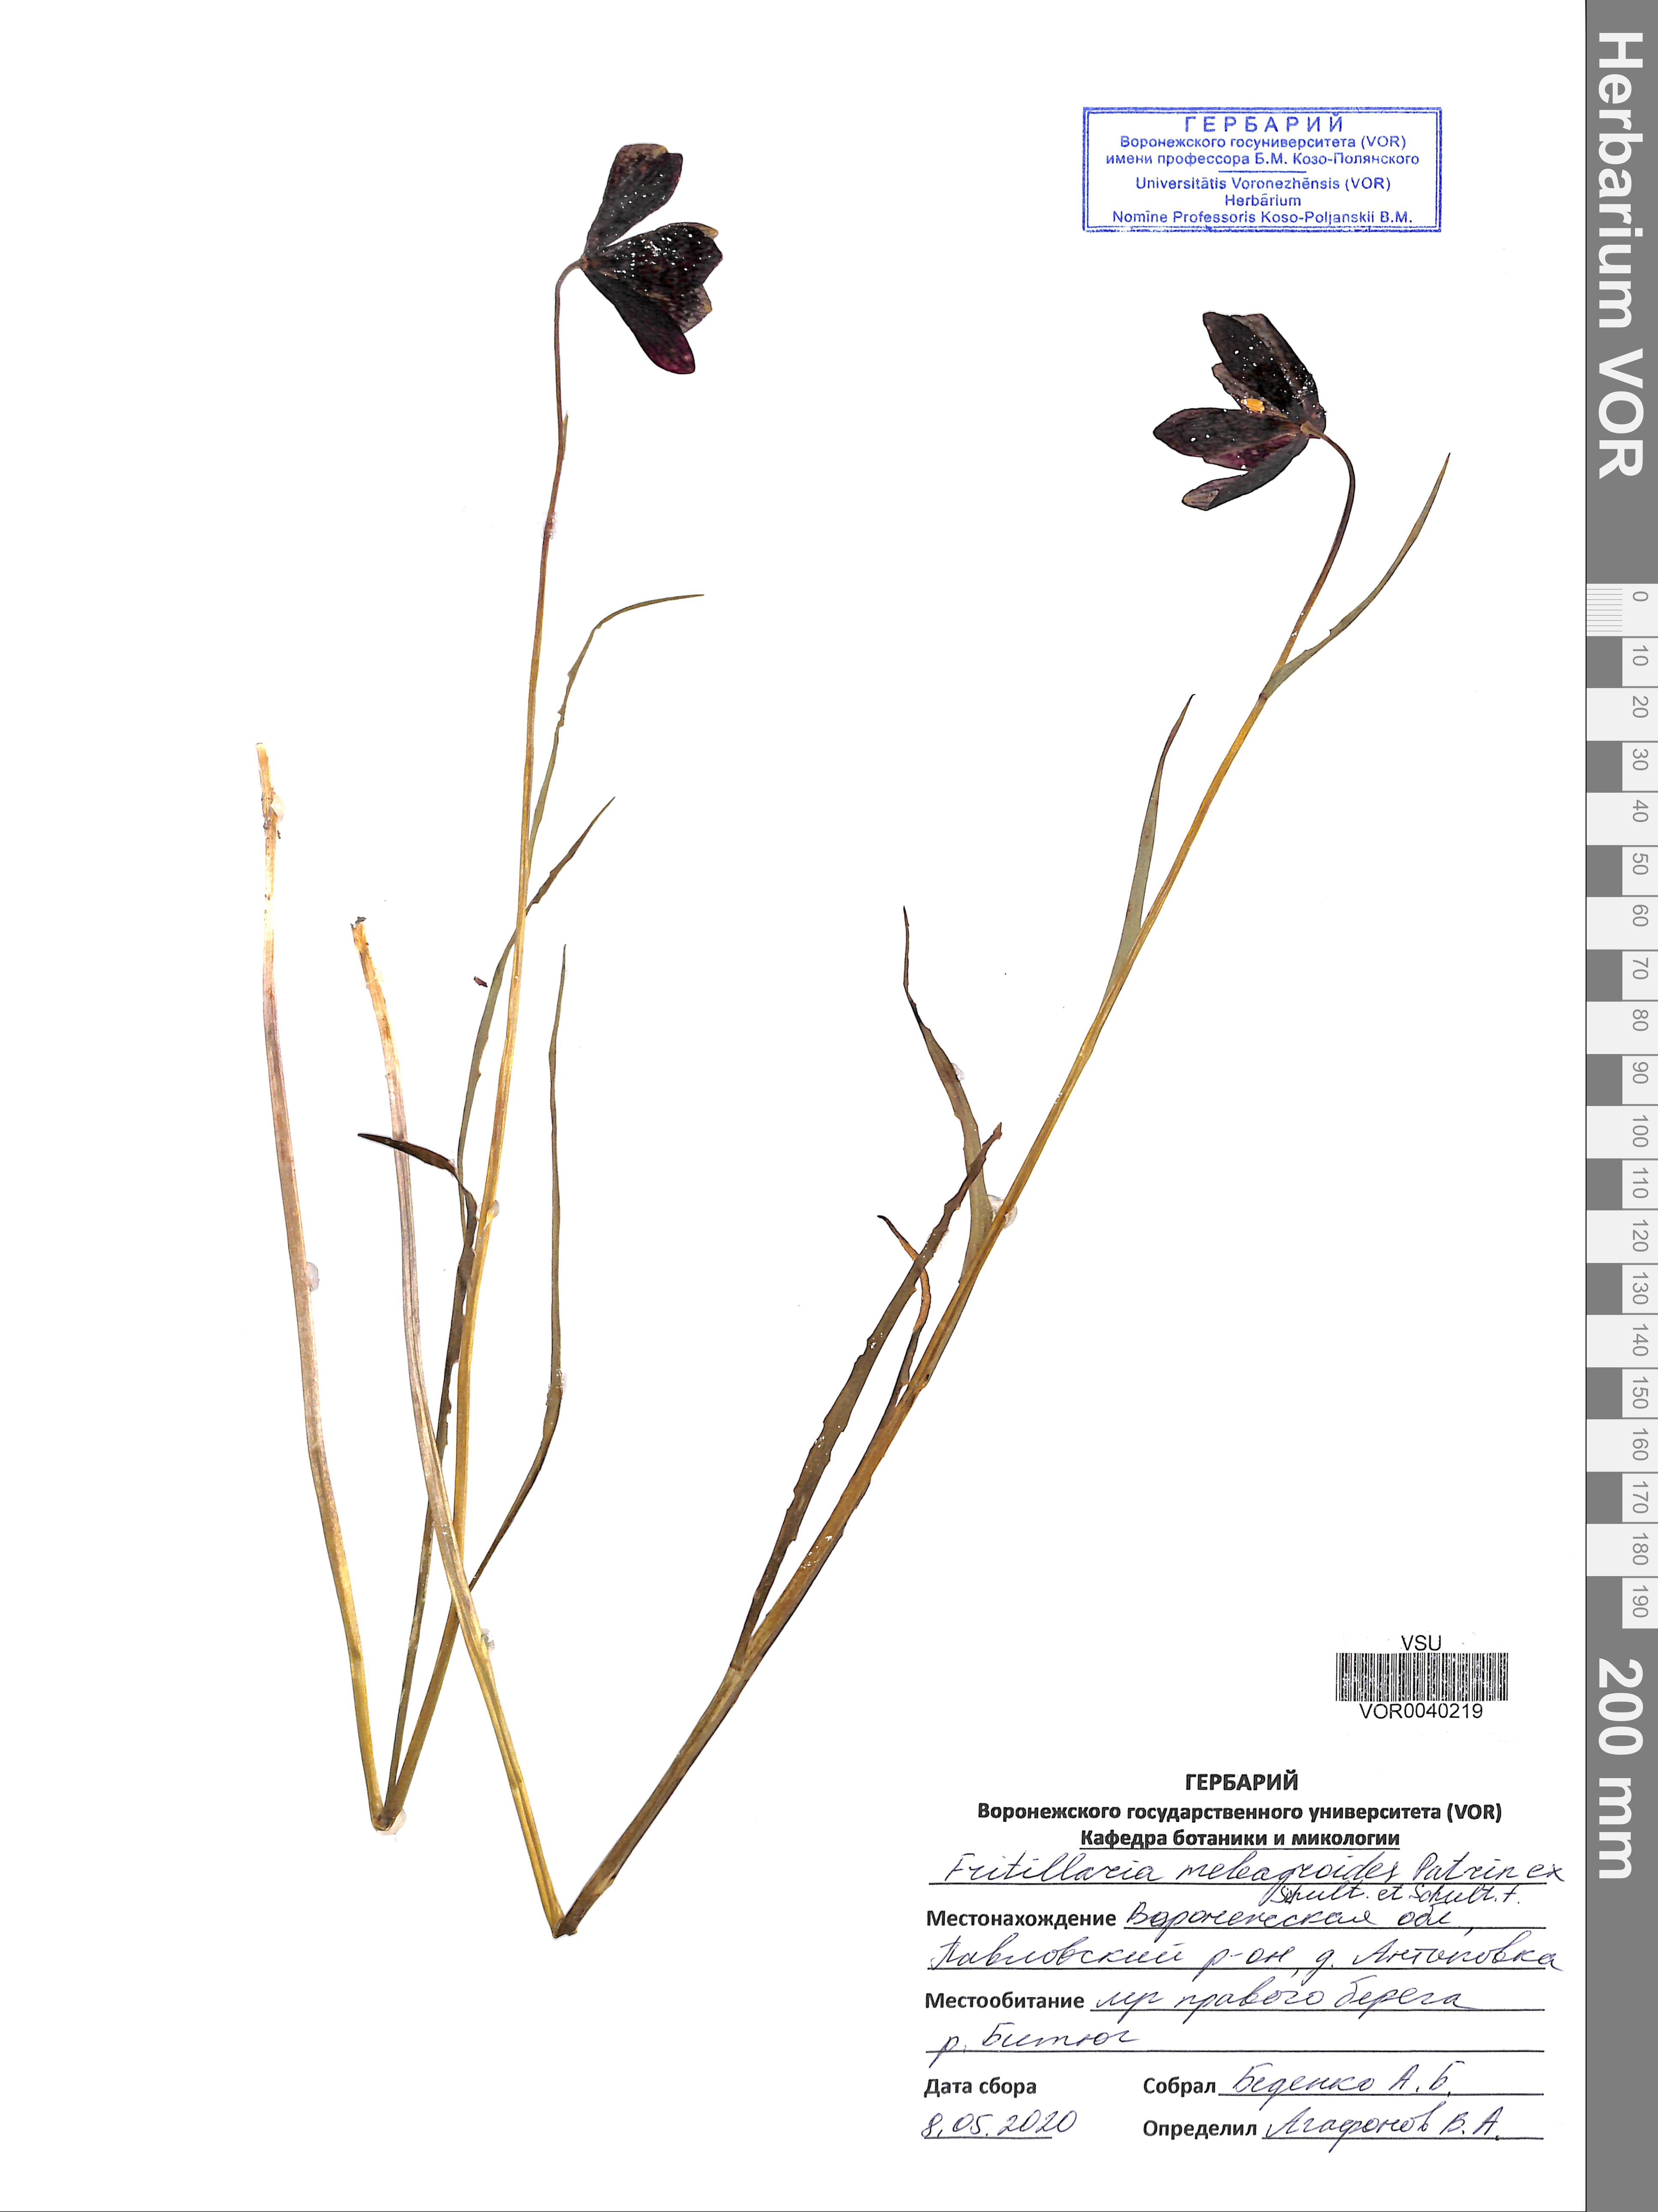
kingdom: Plantae
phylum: Tracheophyta
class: Liliopsida
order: Liliales
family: Liliaceae
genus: Fritillaria
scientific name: Fritillaria meleagroides
